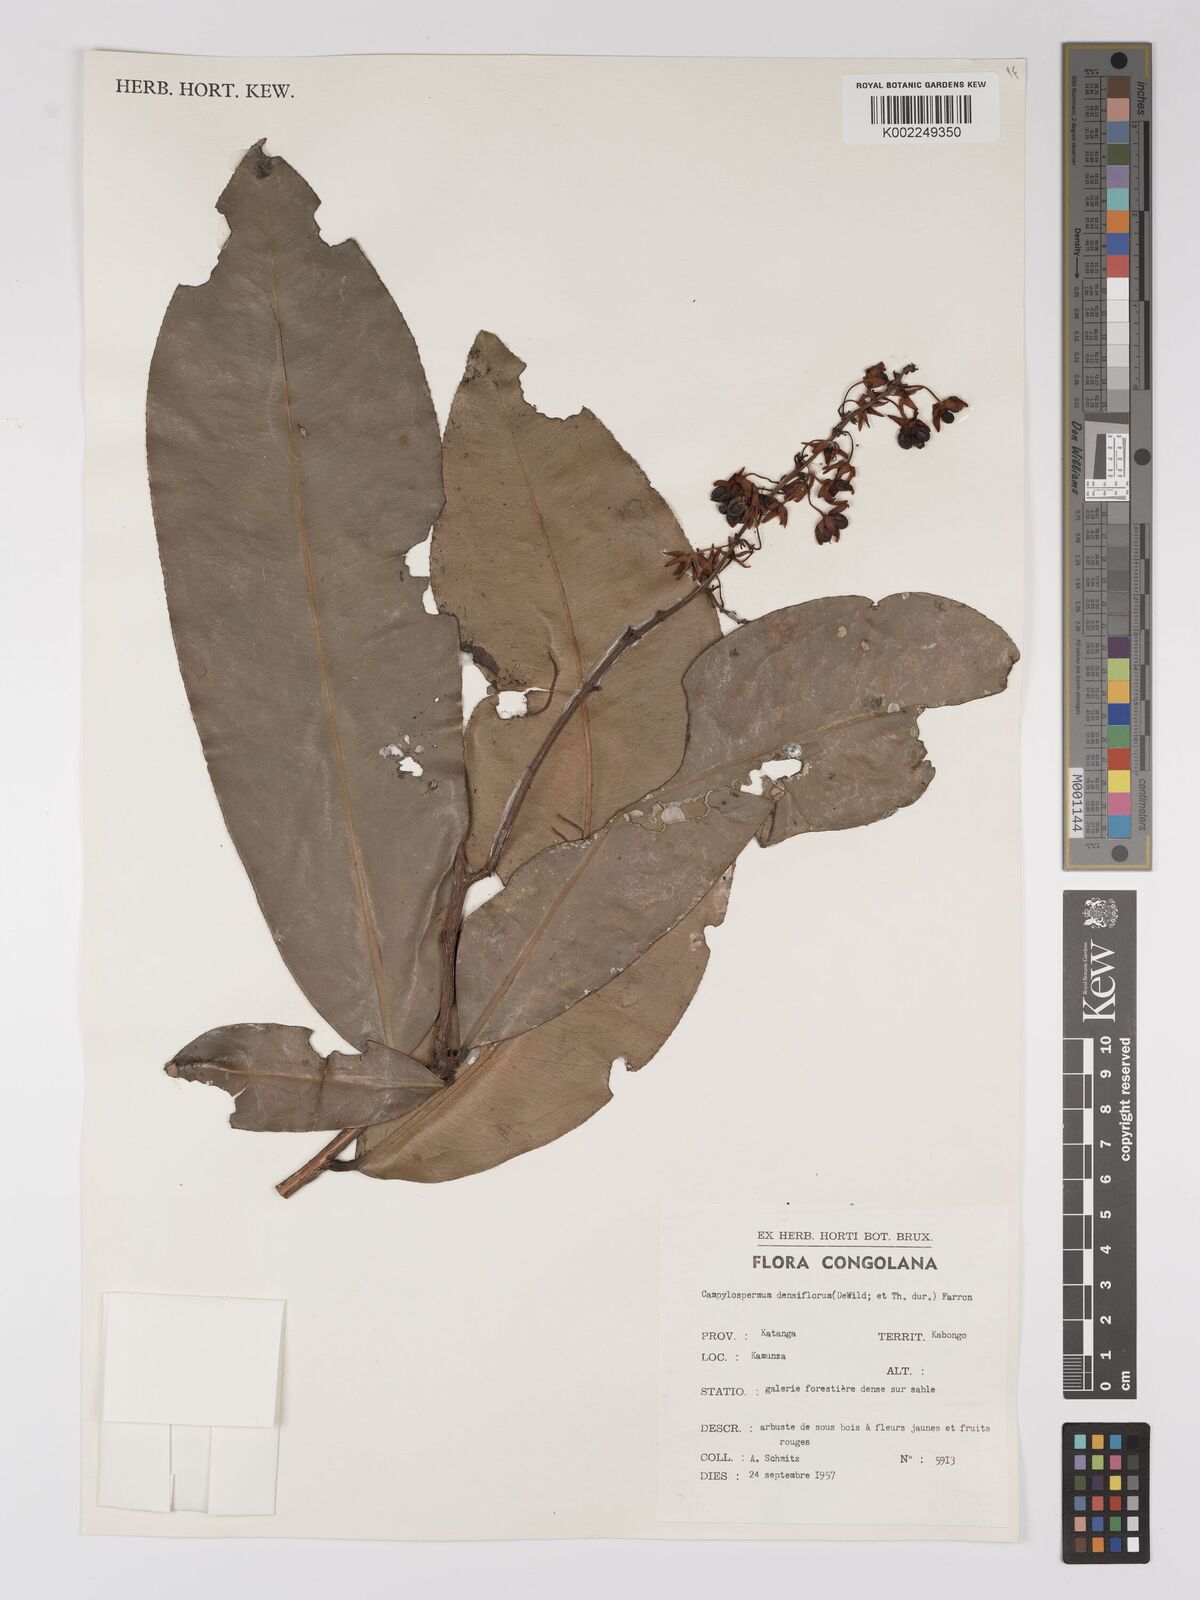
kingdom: Plantae
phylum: Tracheophyta
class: Magnoliopsida
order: Malpighiales
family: Ochnaceae
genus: Gomphia
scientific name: Gomphia densiflora
